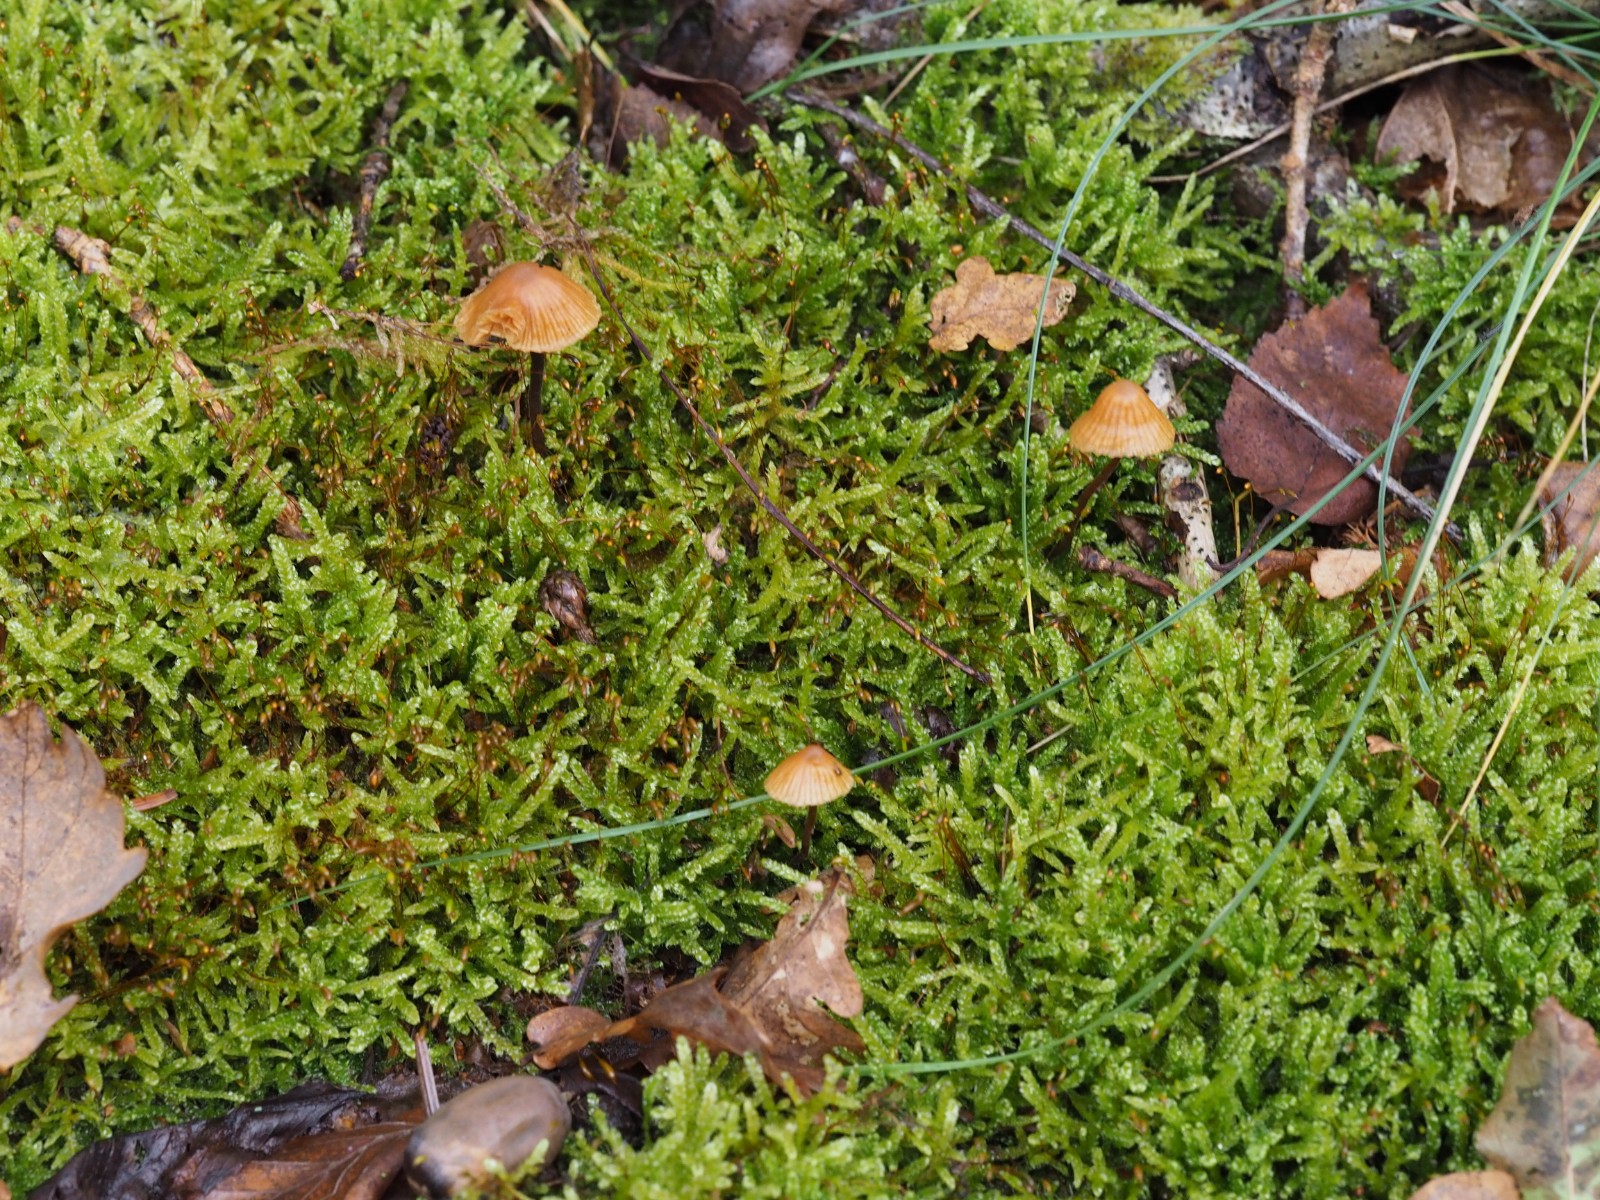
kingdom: Fungi
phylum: Basidiomycota
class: Agaricomycetes
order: Agaricales
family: Hymenogastraceae
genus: Galerina
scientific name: Galerina
